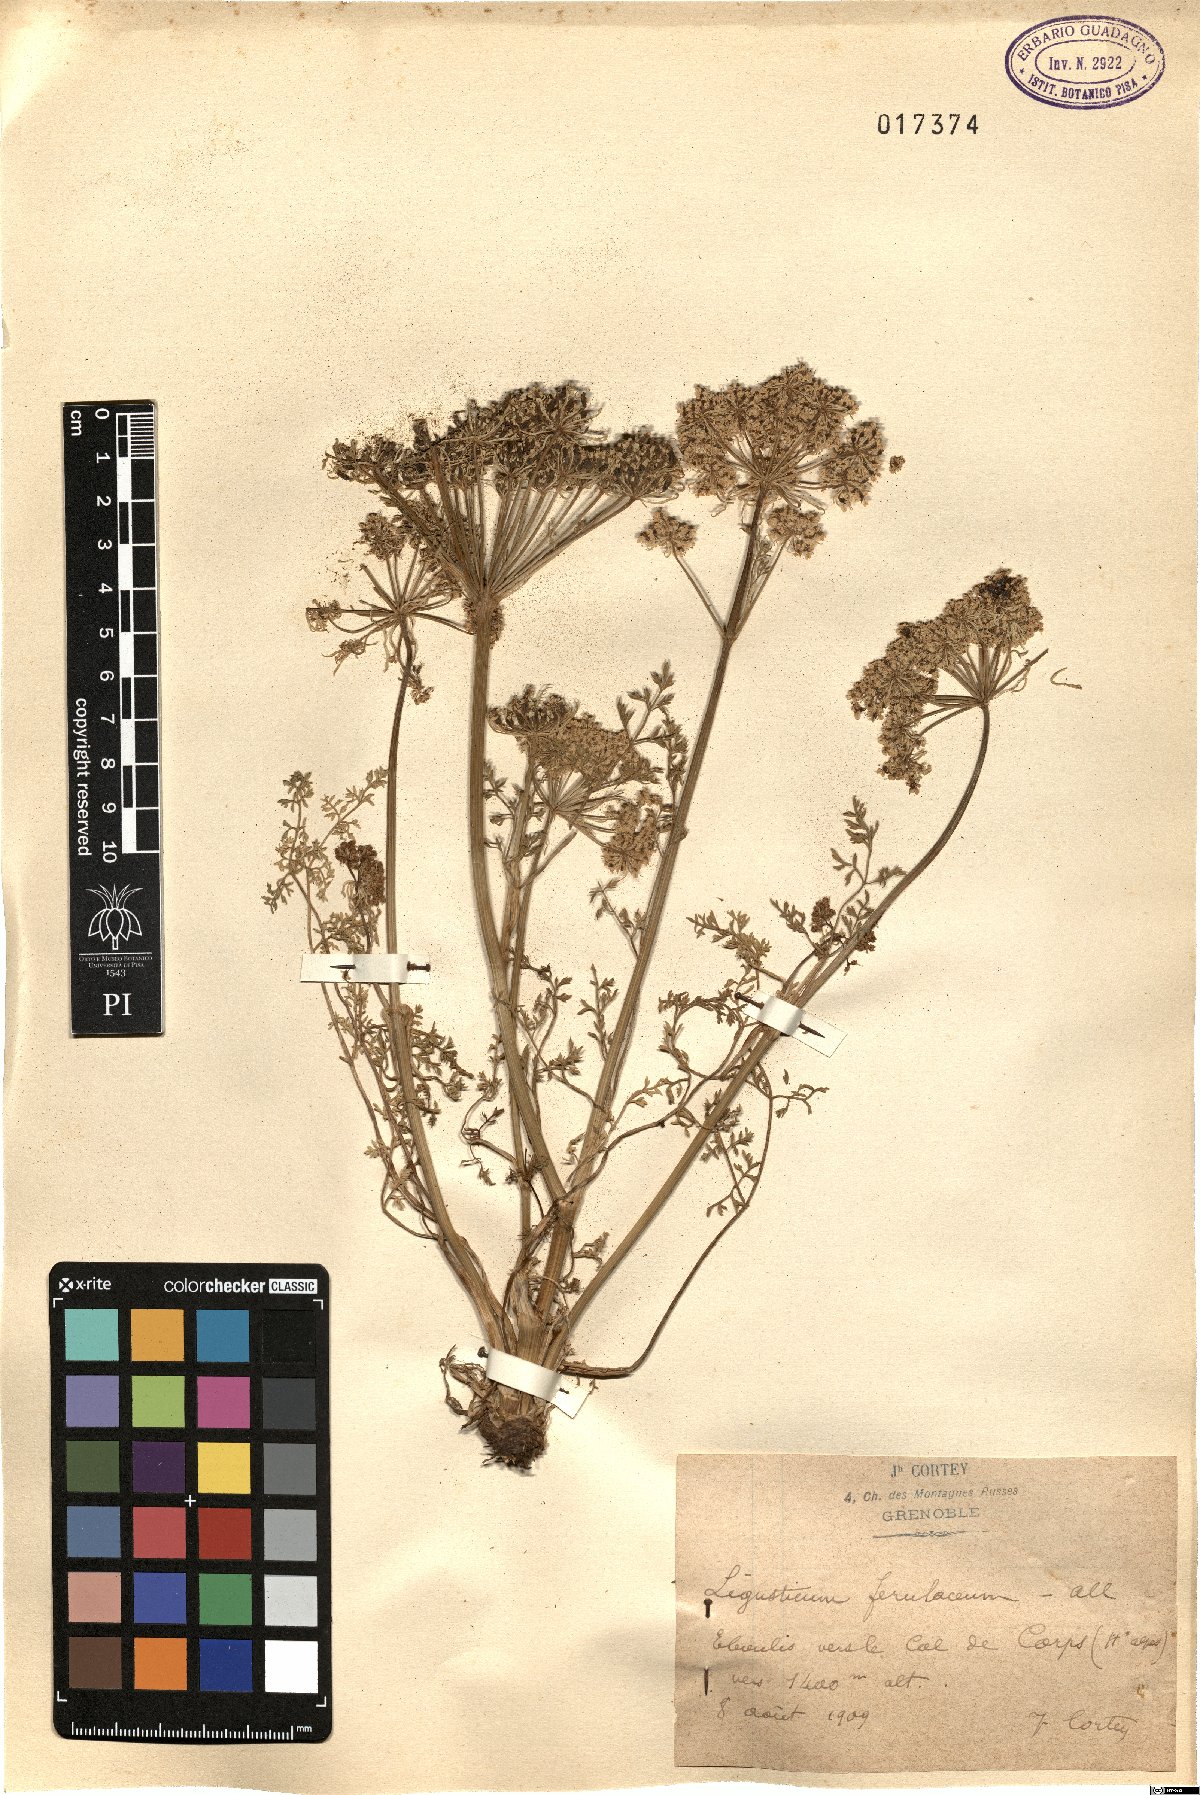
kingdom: Plantae
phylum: Tracheophyta
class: Magnoliopsida
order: Apiales
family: Apiaceae
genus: Coristospermum
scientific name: Coristospermum ferulaceum
